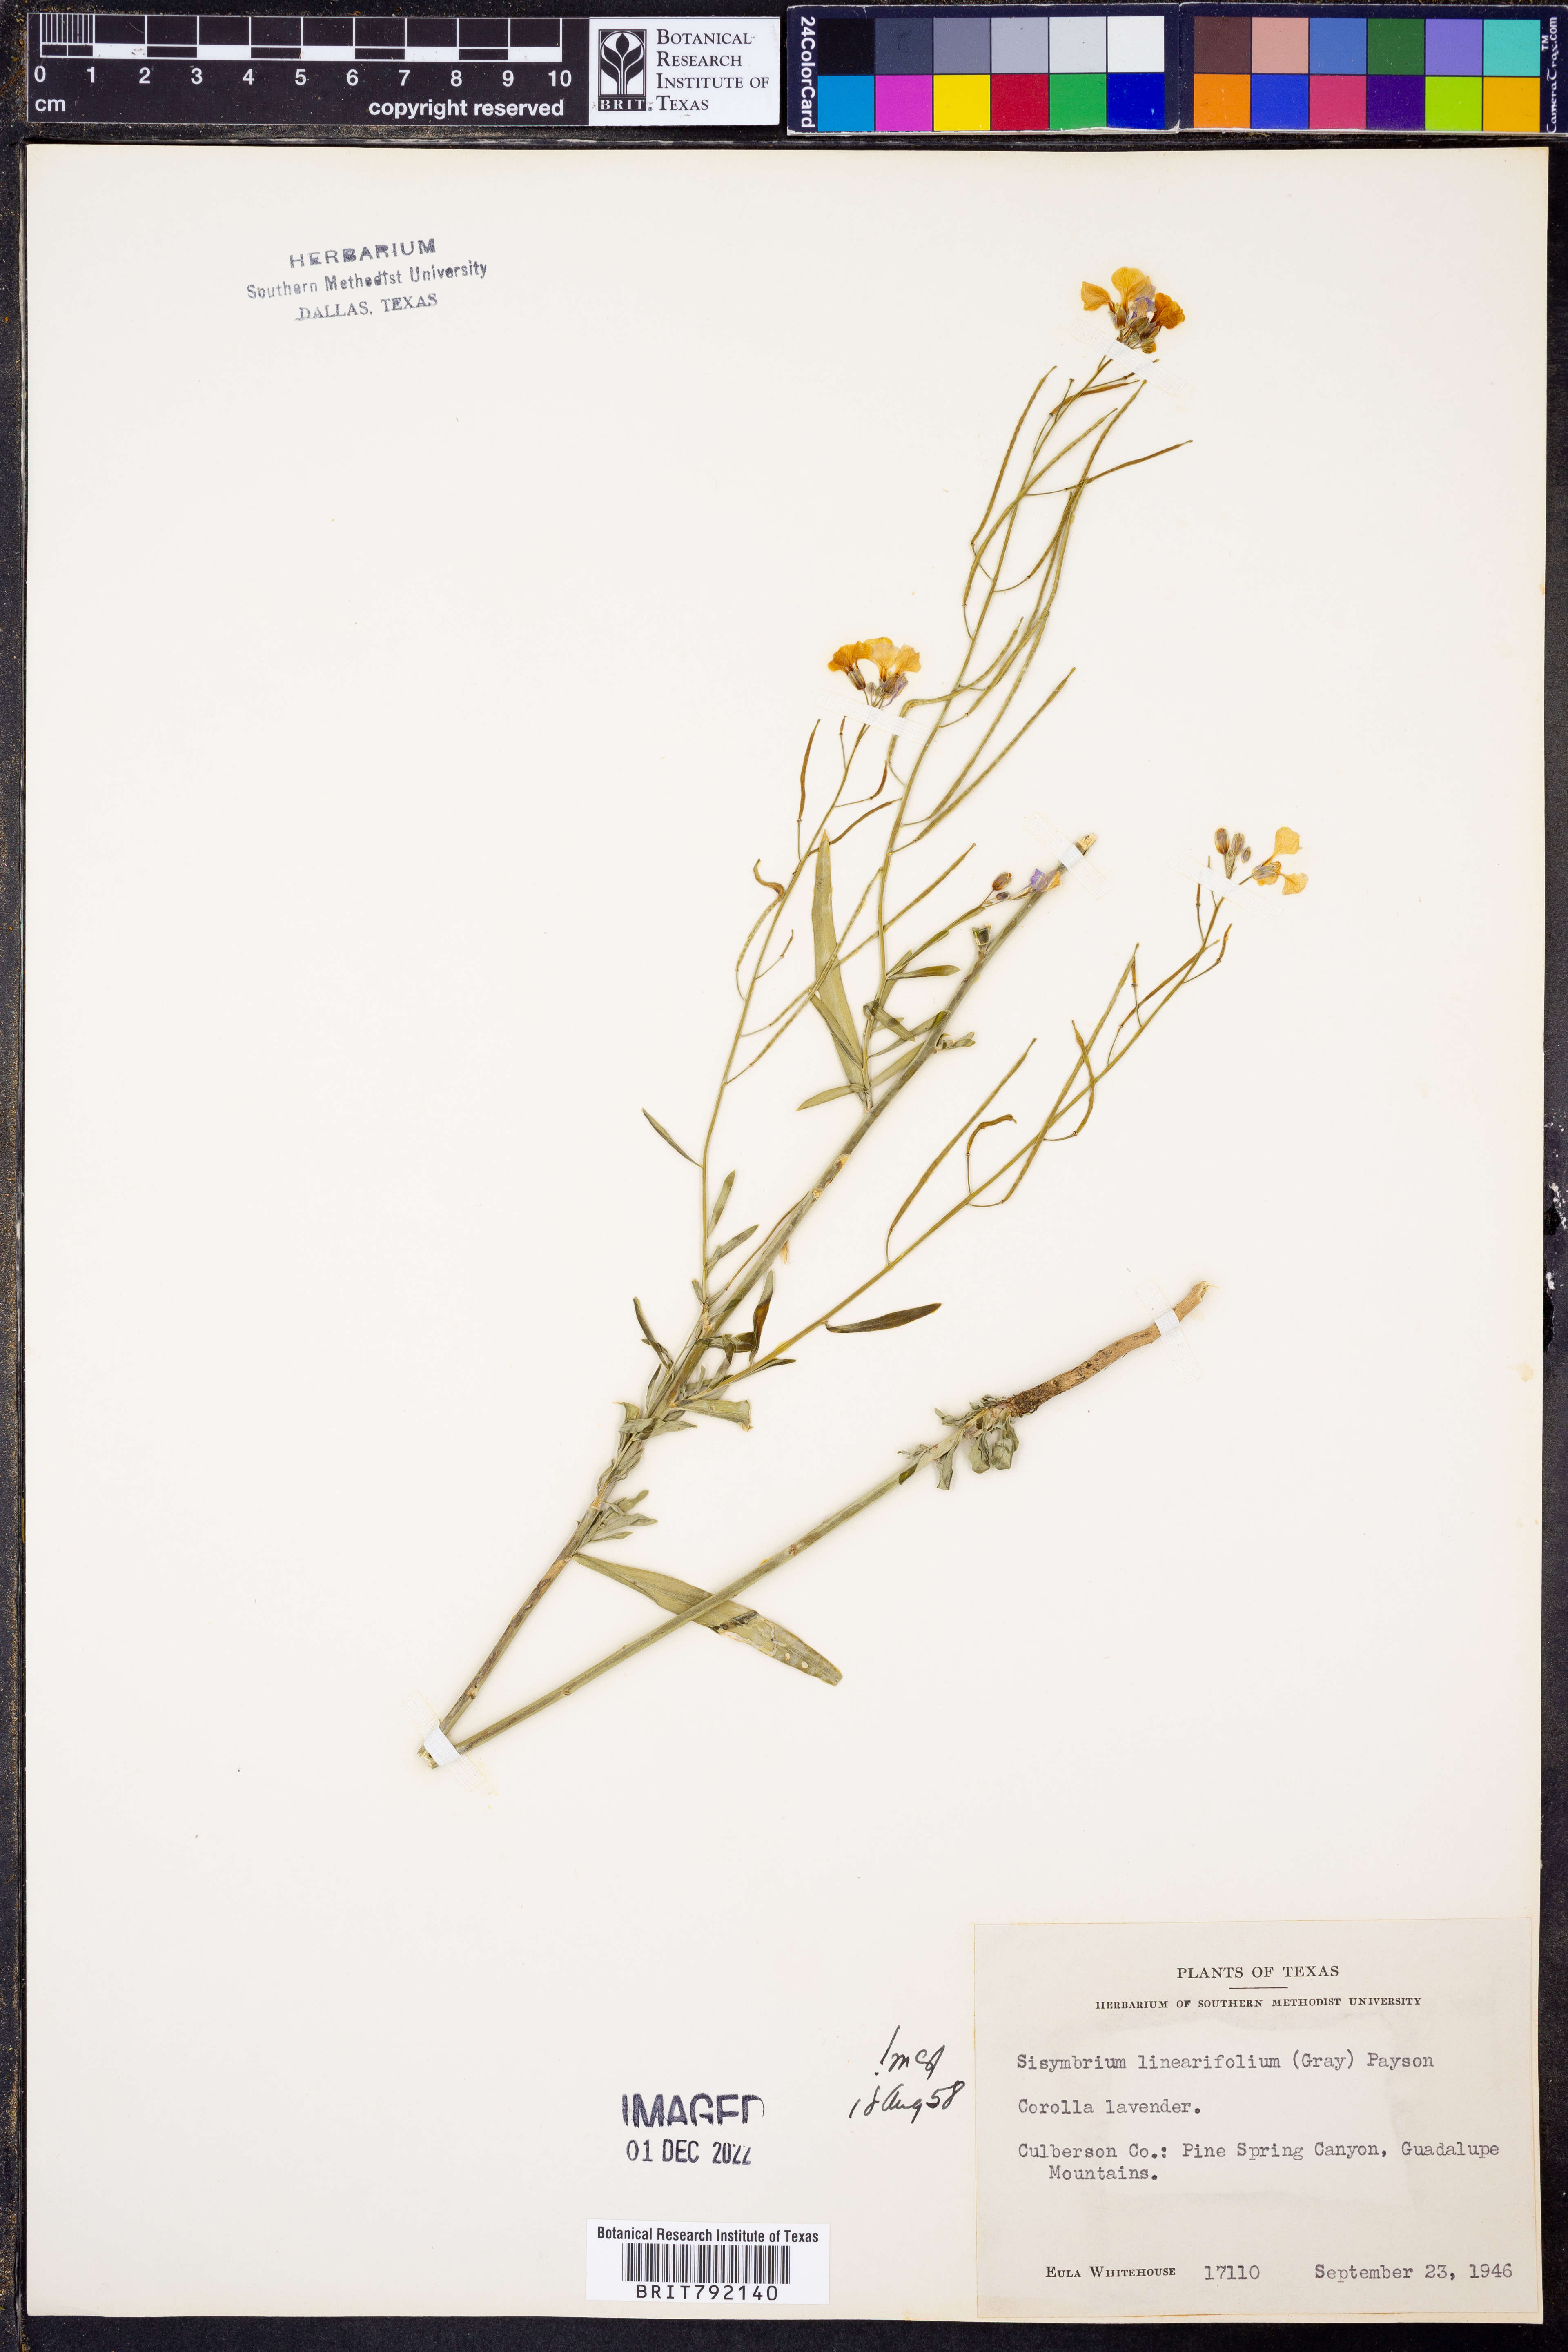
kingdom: Plantae
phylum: Tracheophyta
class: Magnoliopsida
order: Brassicales
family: Brassicaceae
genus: Hesperidanthus
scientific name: Hesperidanthus linearifolius
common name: Slim-leaf plains mustard
